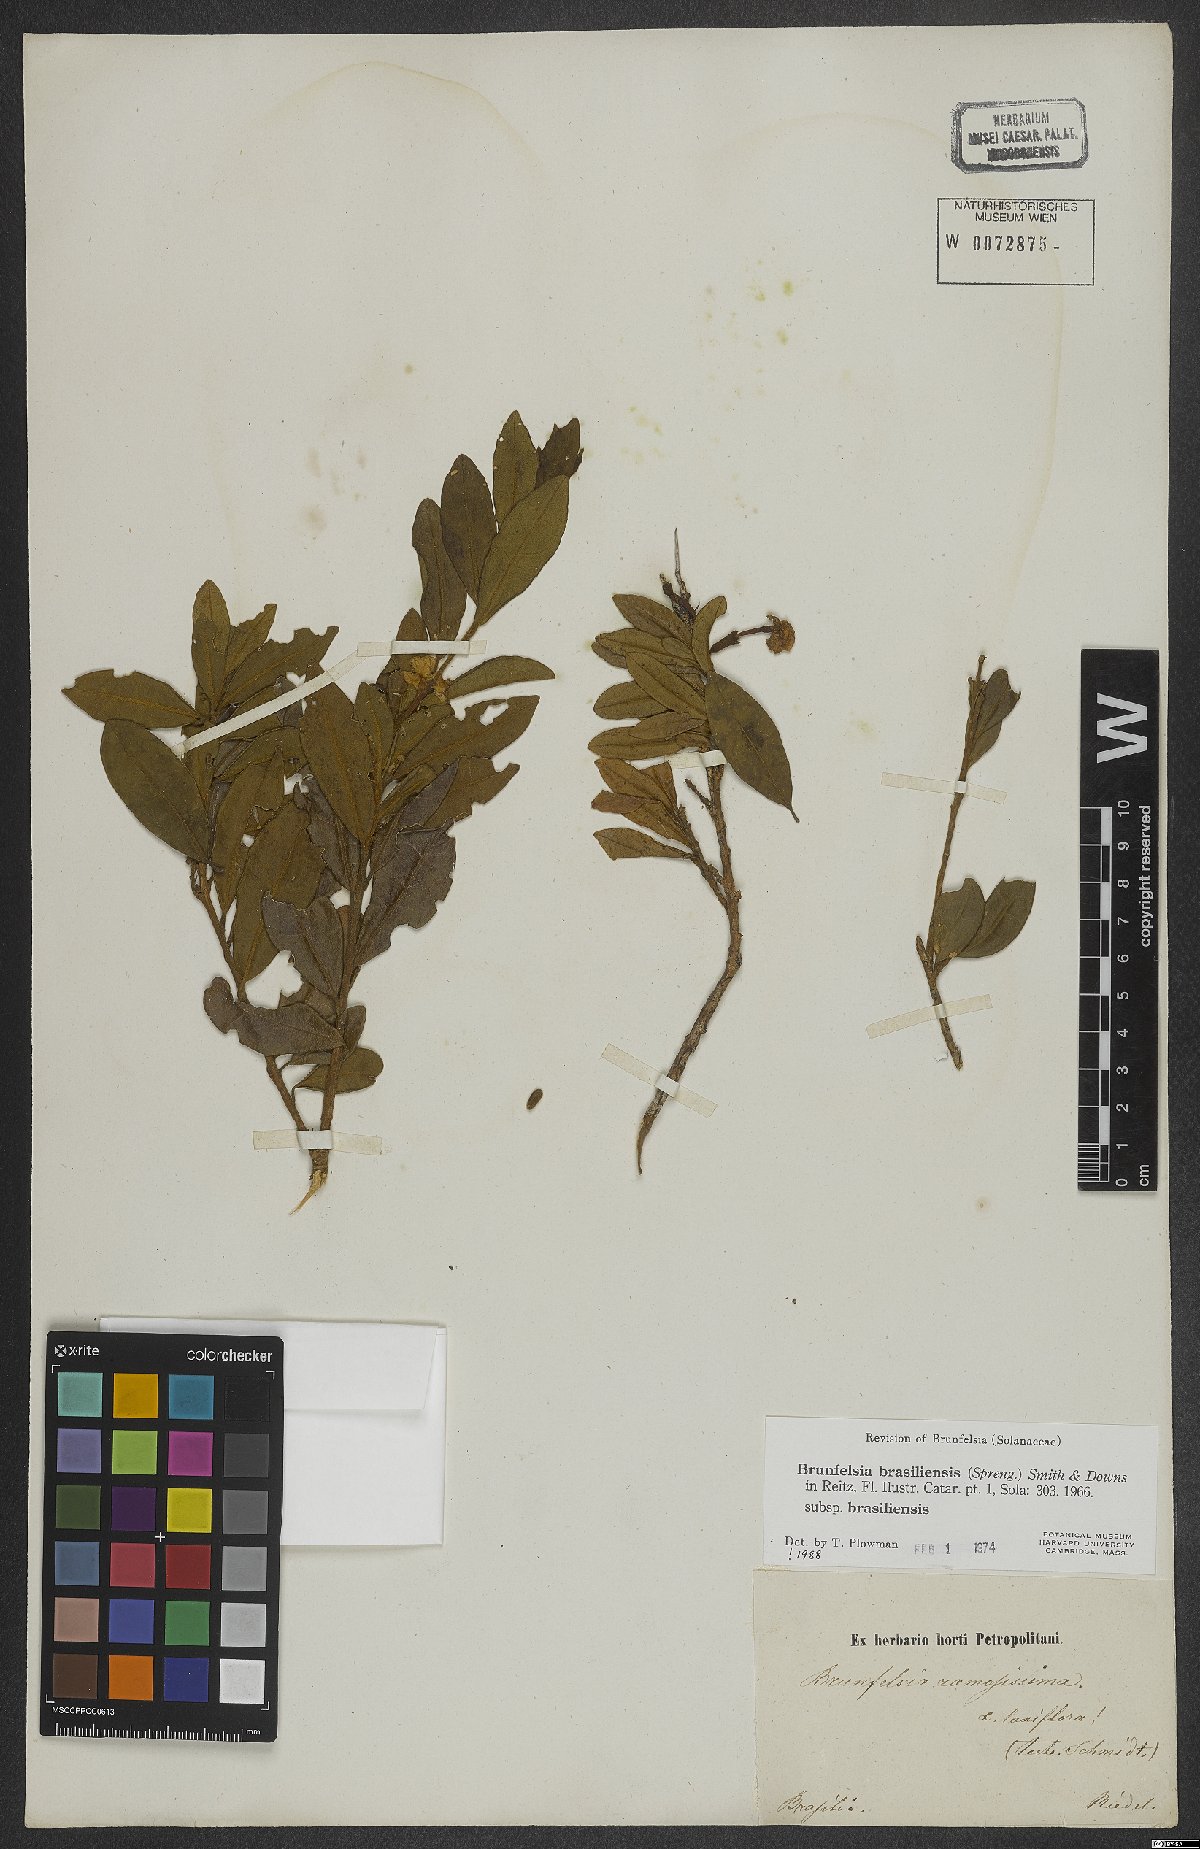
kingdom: Plantae
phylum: Tracheophyta
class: Magnoliopsida
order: Solanales
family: Solanaceae
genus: Brunfelsia
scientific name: Brunfelsia brasiliensis
